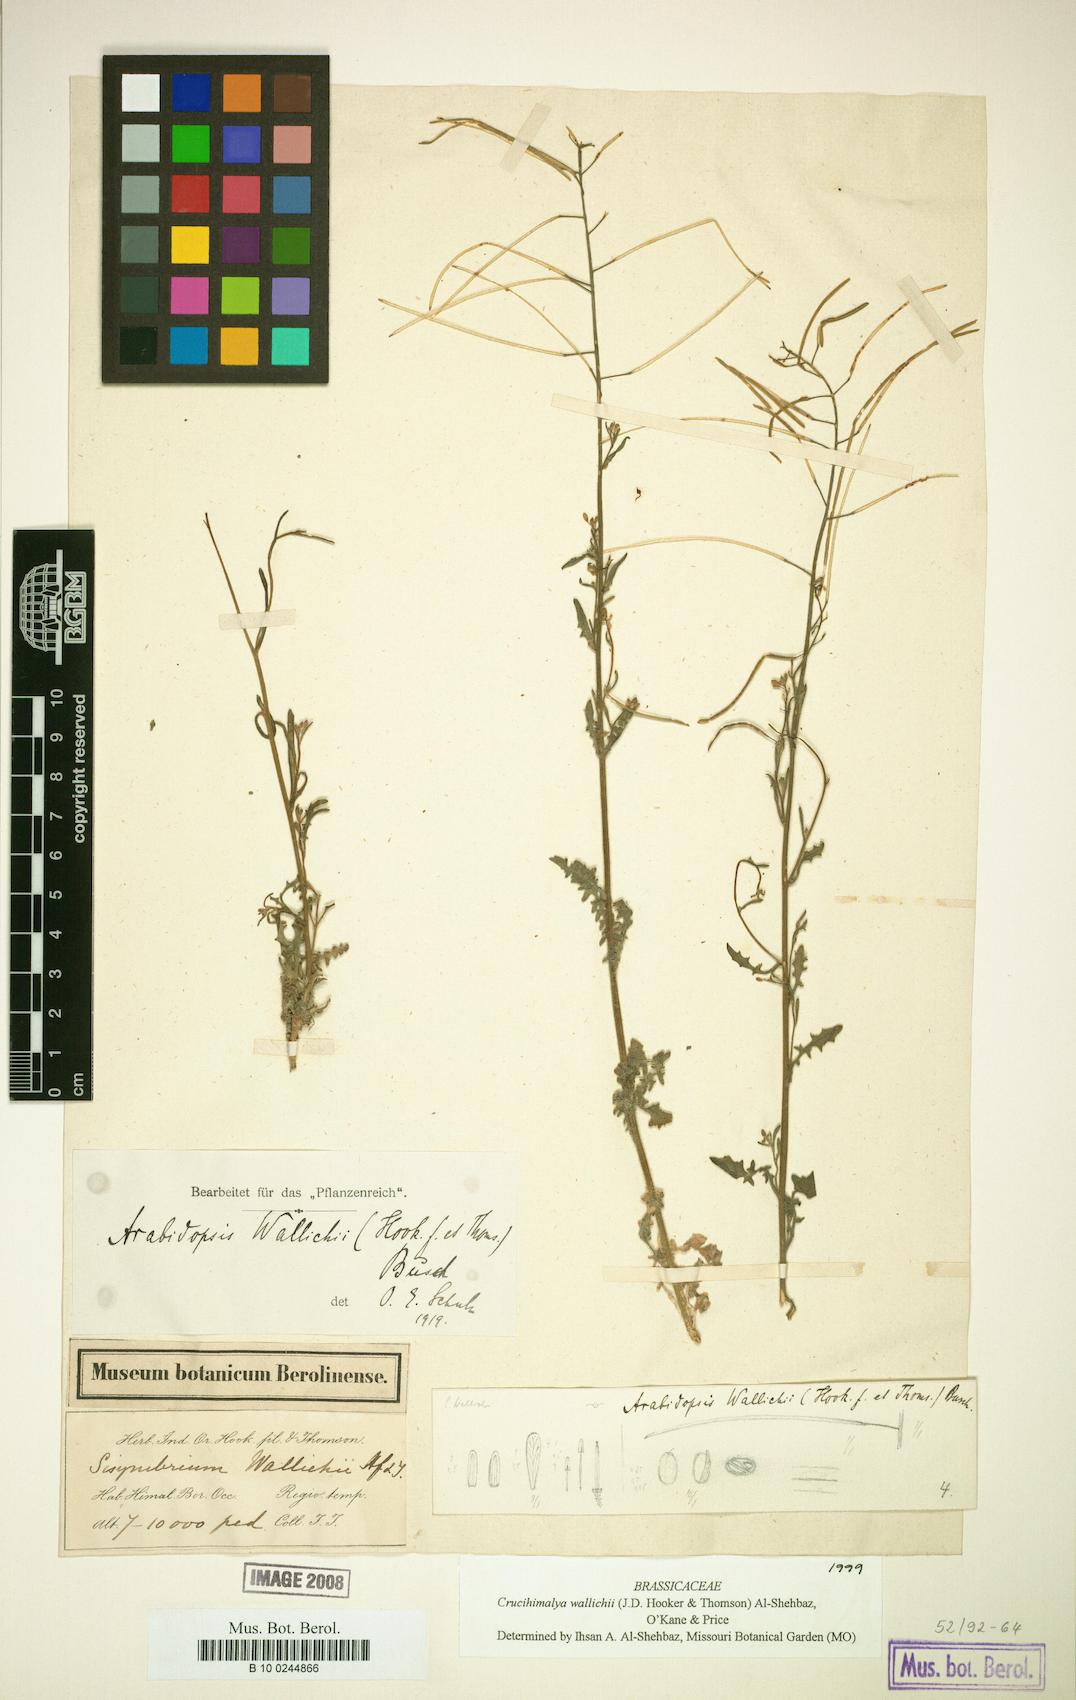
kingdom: Plantae
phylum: Tracheophyta
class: Magnoliopsida
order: Brassicales
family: Brassicaceae
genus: Crucihimalaya
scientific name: Crucihimalaya wallichii
